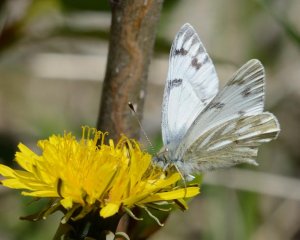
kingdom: Animalia
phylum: Arthropoda
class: Insecta
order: Lepidoptera
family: Pieridae
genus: Pontia
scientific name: Pontia occidentalis
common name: Western White
